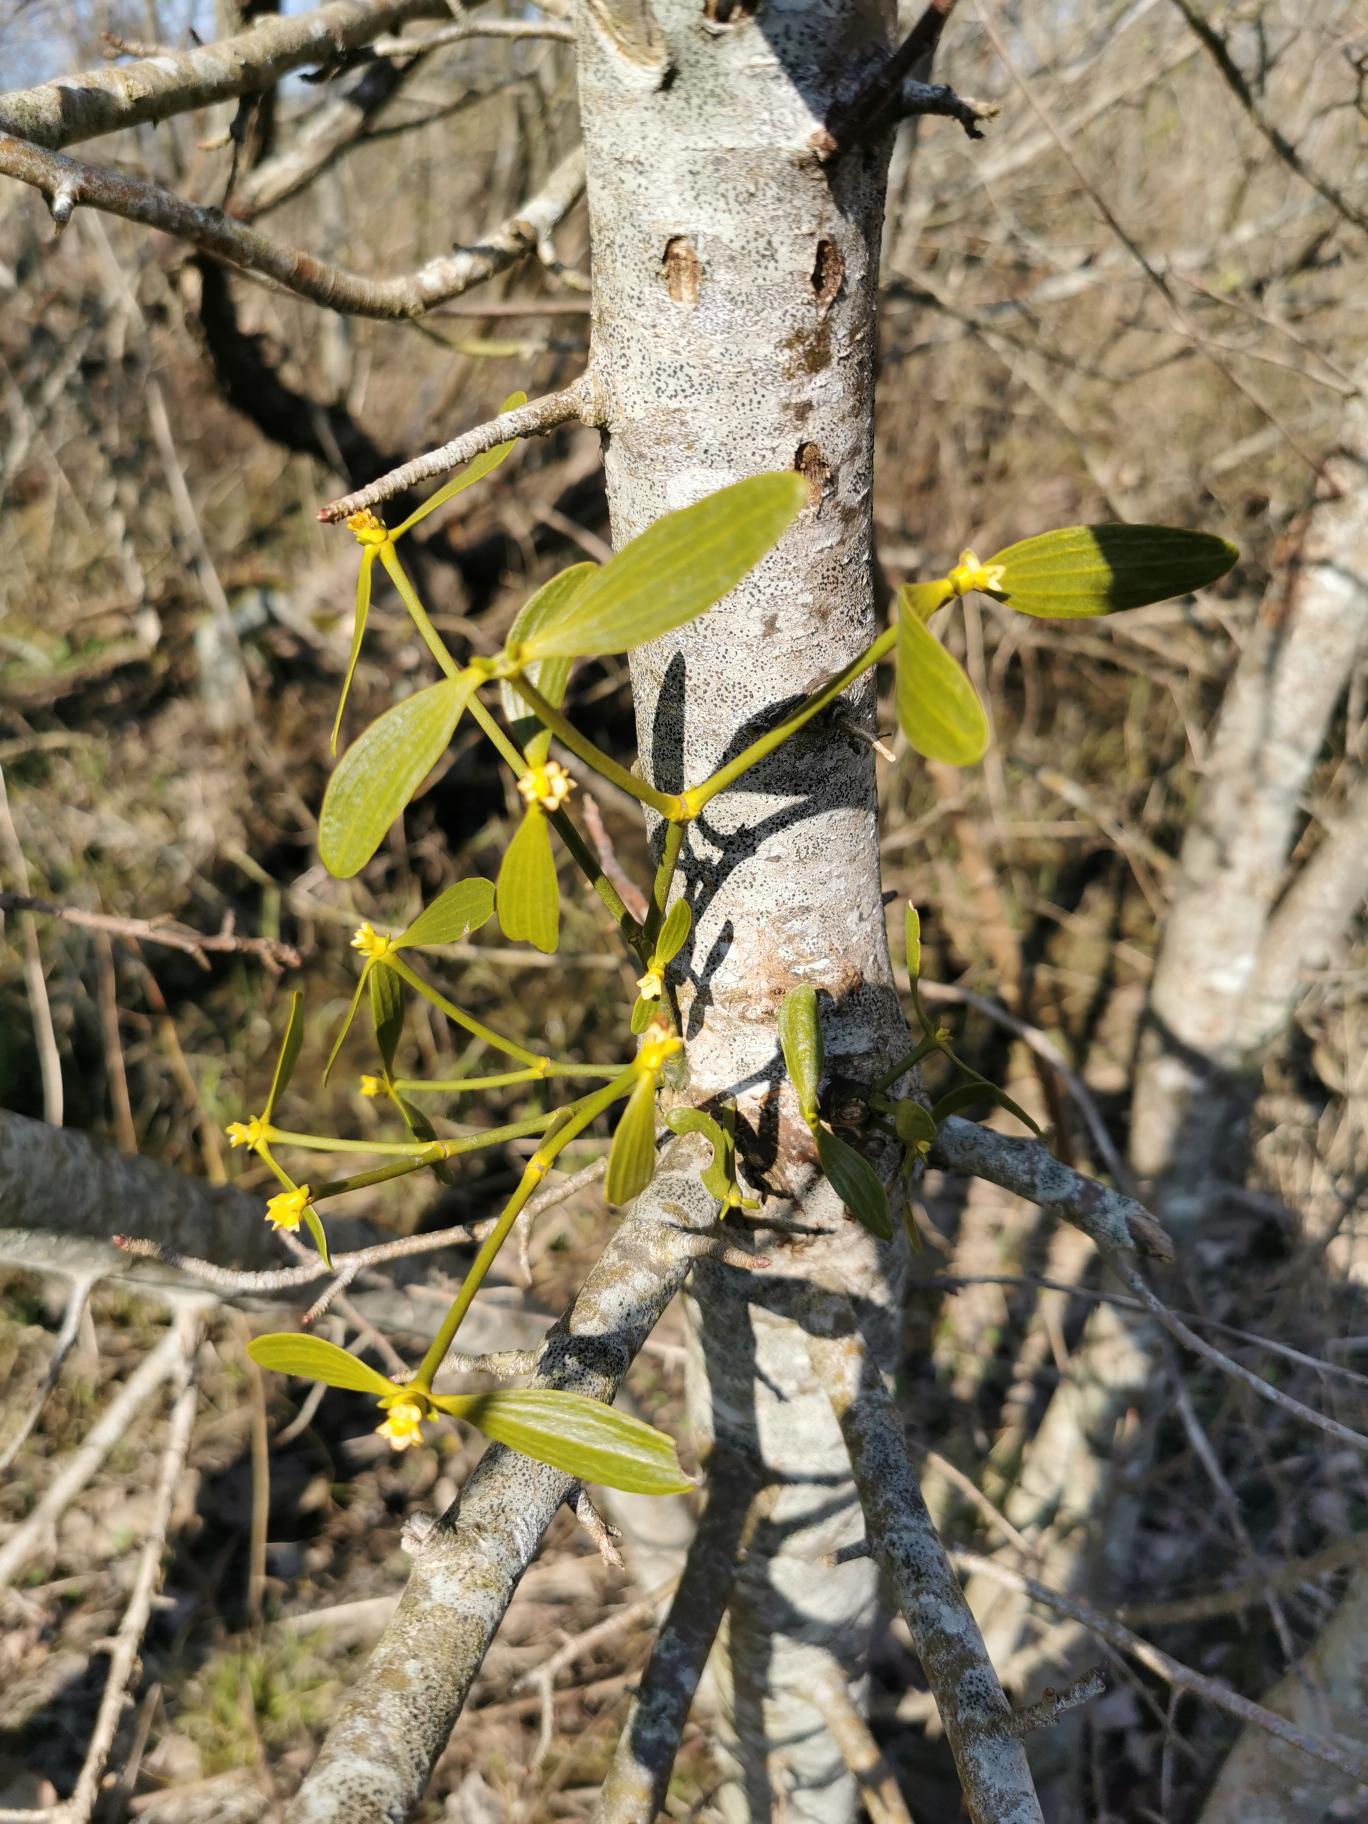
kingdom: Plantae
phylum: Tracheophyta
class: Magnoliopsida
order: Santalales
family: Viscaceae
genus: Viscum
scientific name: Viscum album
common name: Mistelten
